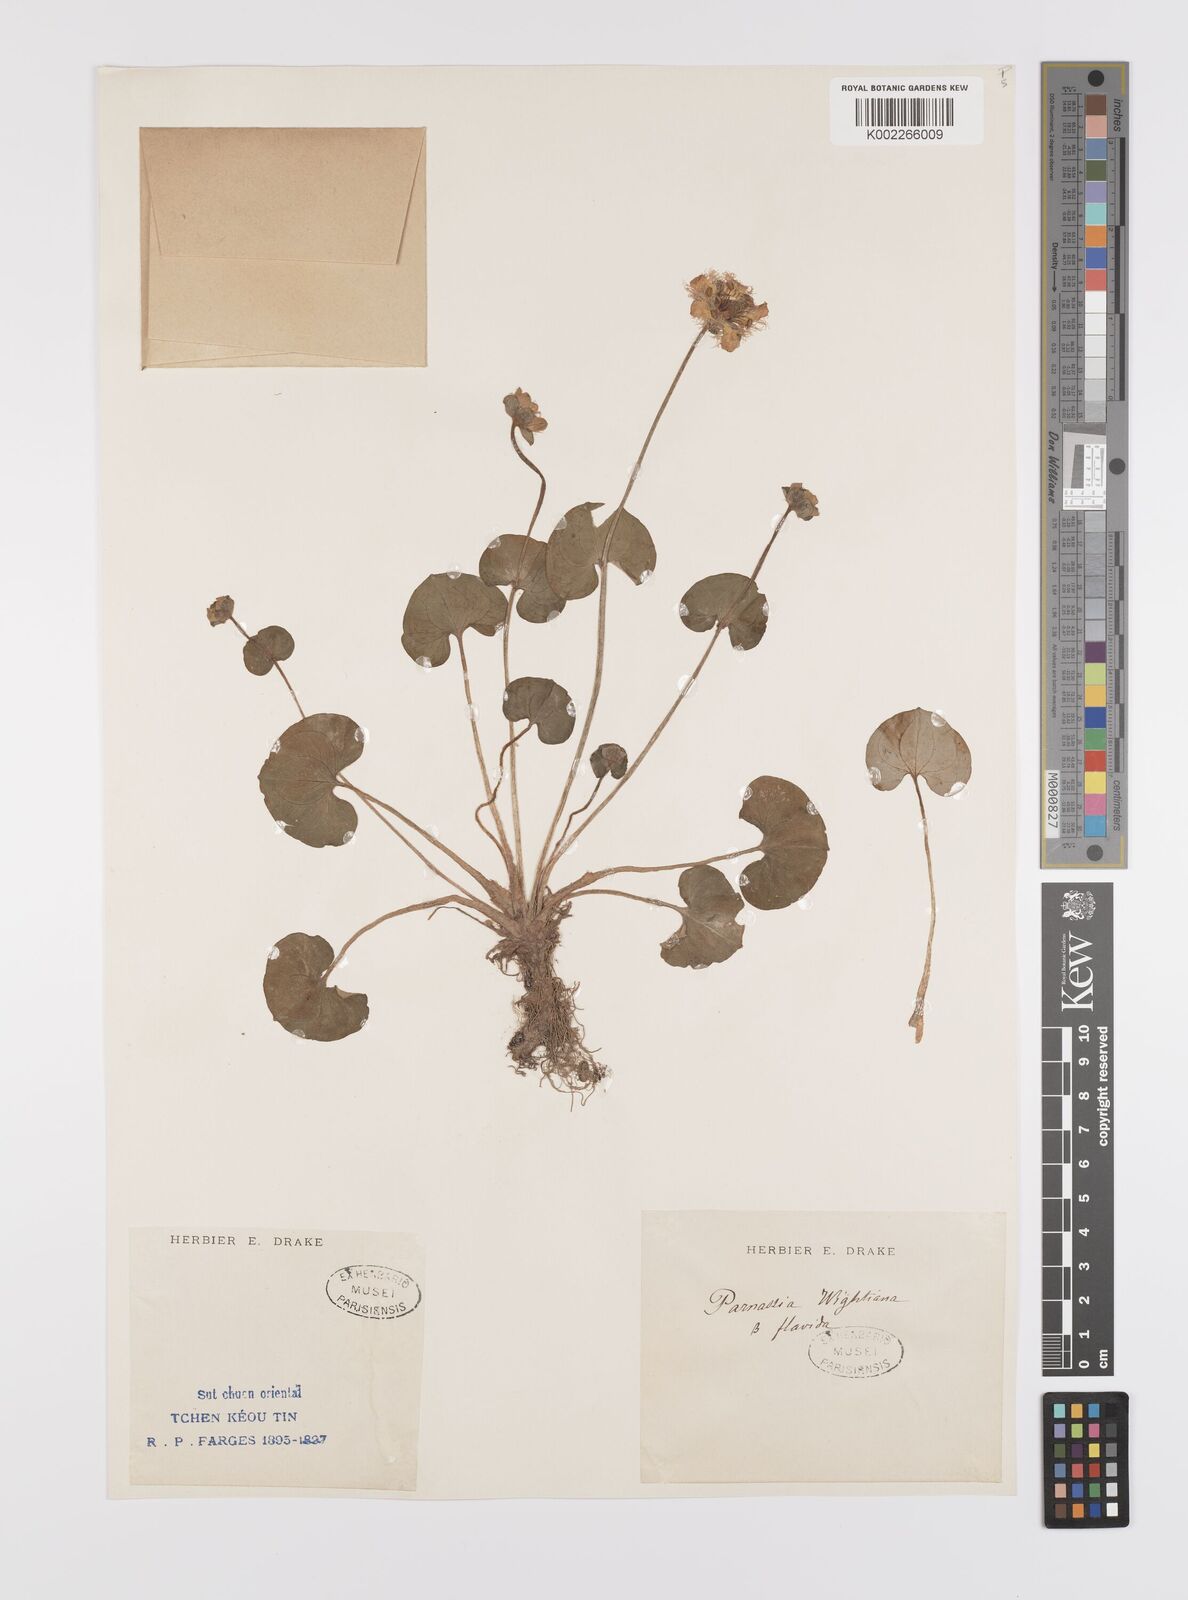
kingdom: Plantae
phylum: Tracheophyta
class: Magnoliopsida
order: Celastrales
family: Parnassiaceae
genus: Parnassia
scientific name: Parnassia wightiana
